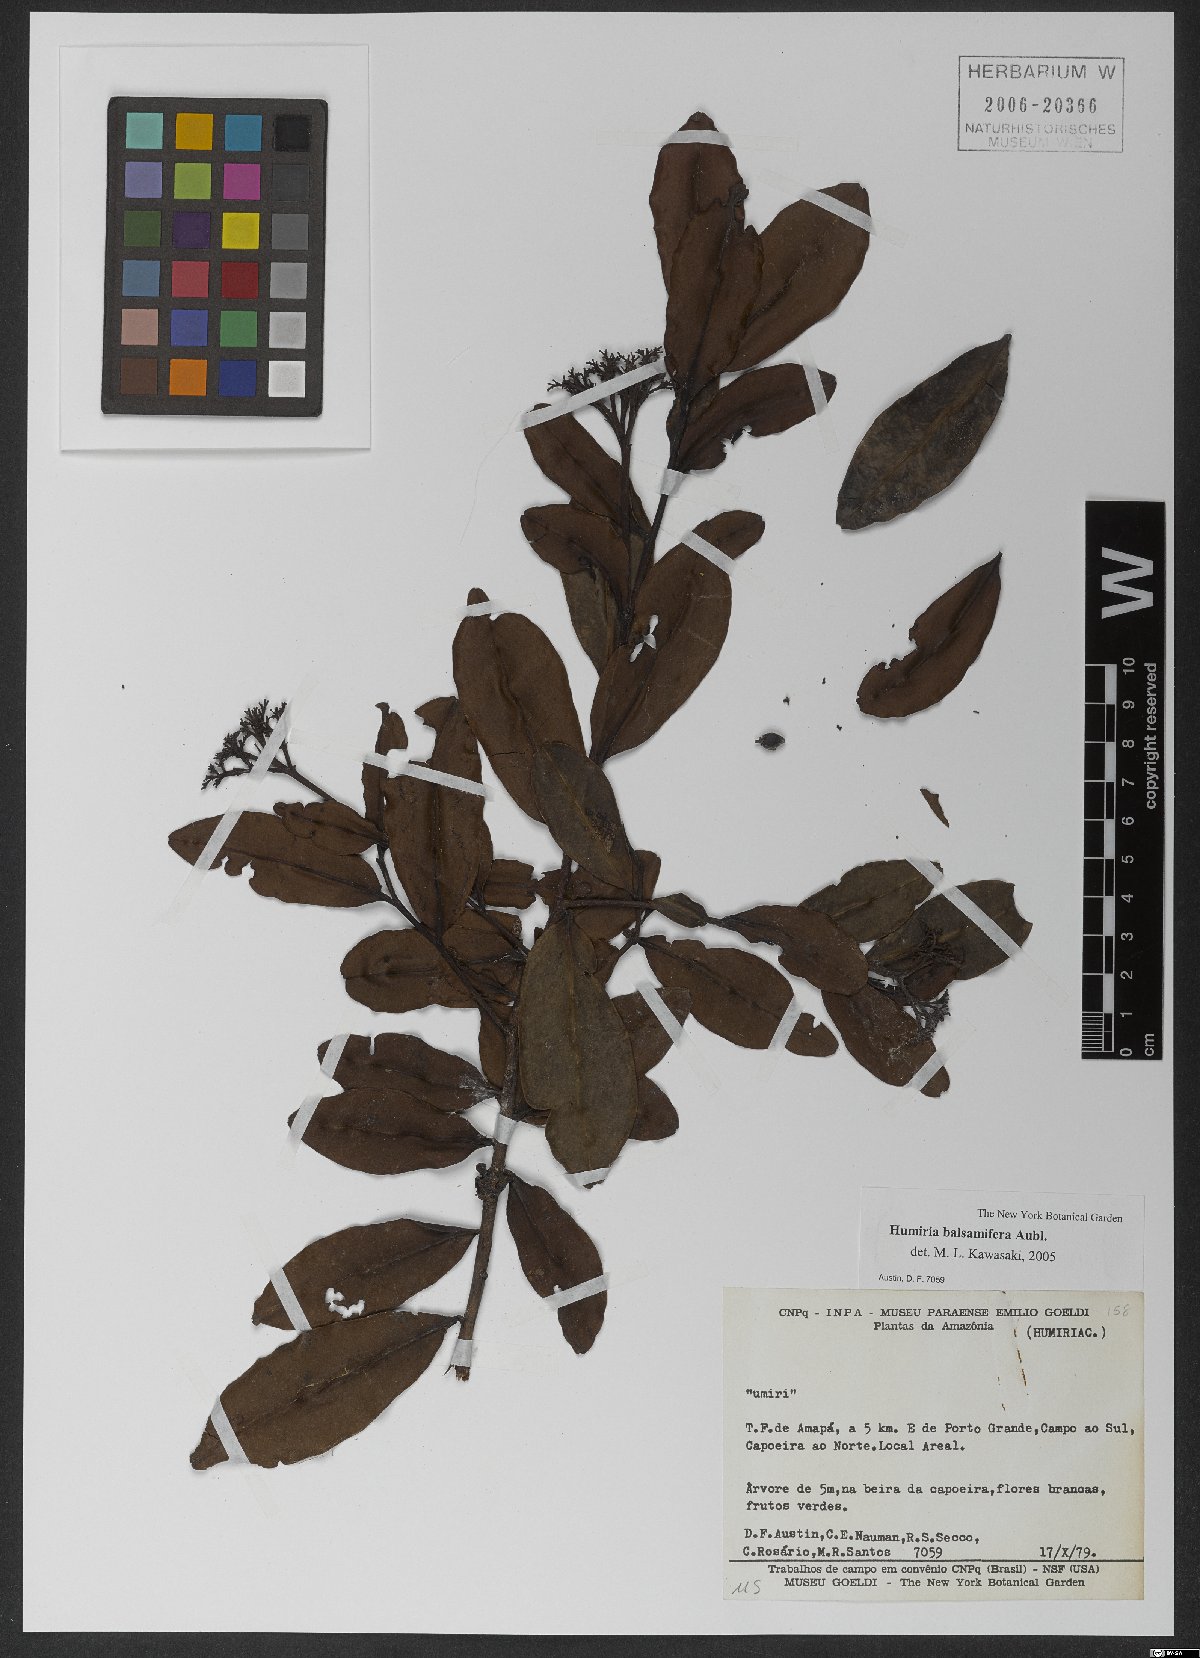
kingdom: Plantae
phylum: Tracheophyta
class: Magnoliopsida
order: Malpighiales
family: Humiriaceae
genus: Humiria
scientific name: Humiria balsamifera
